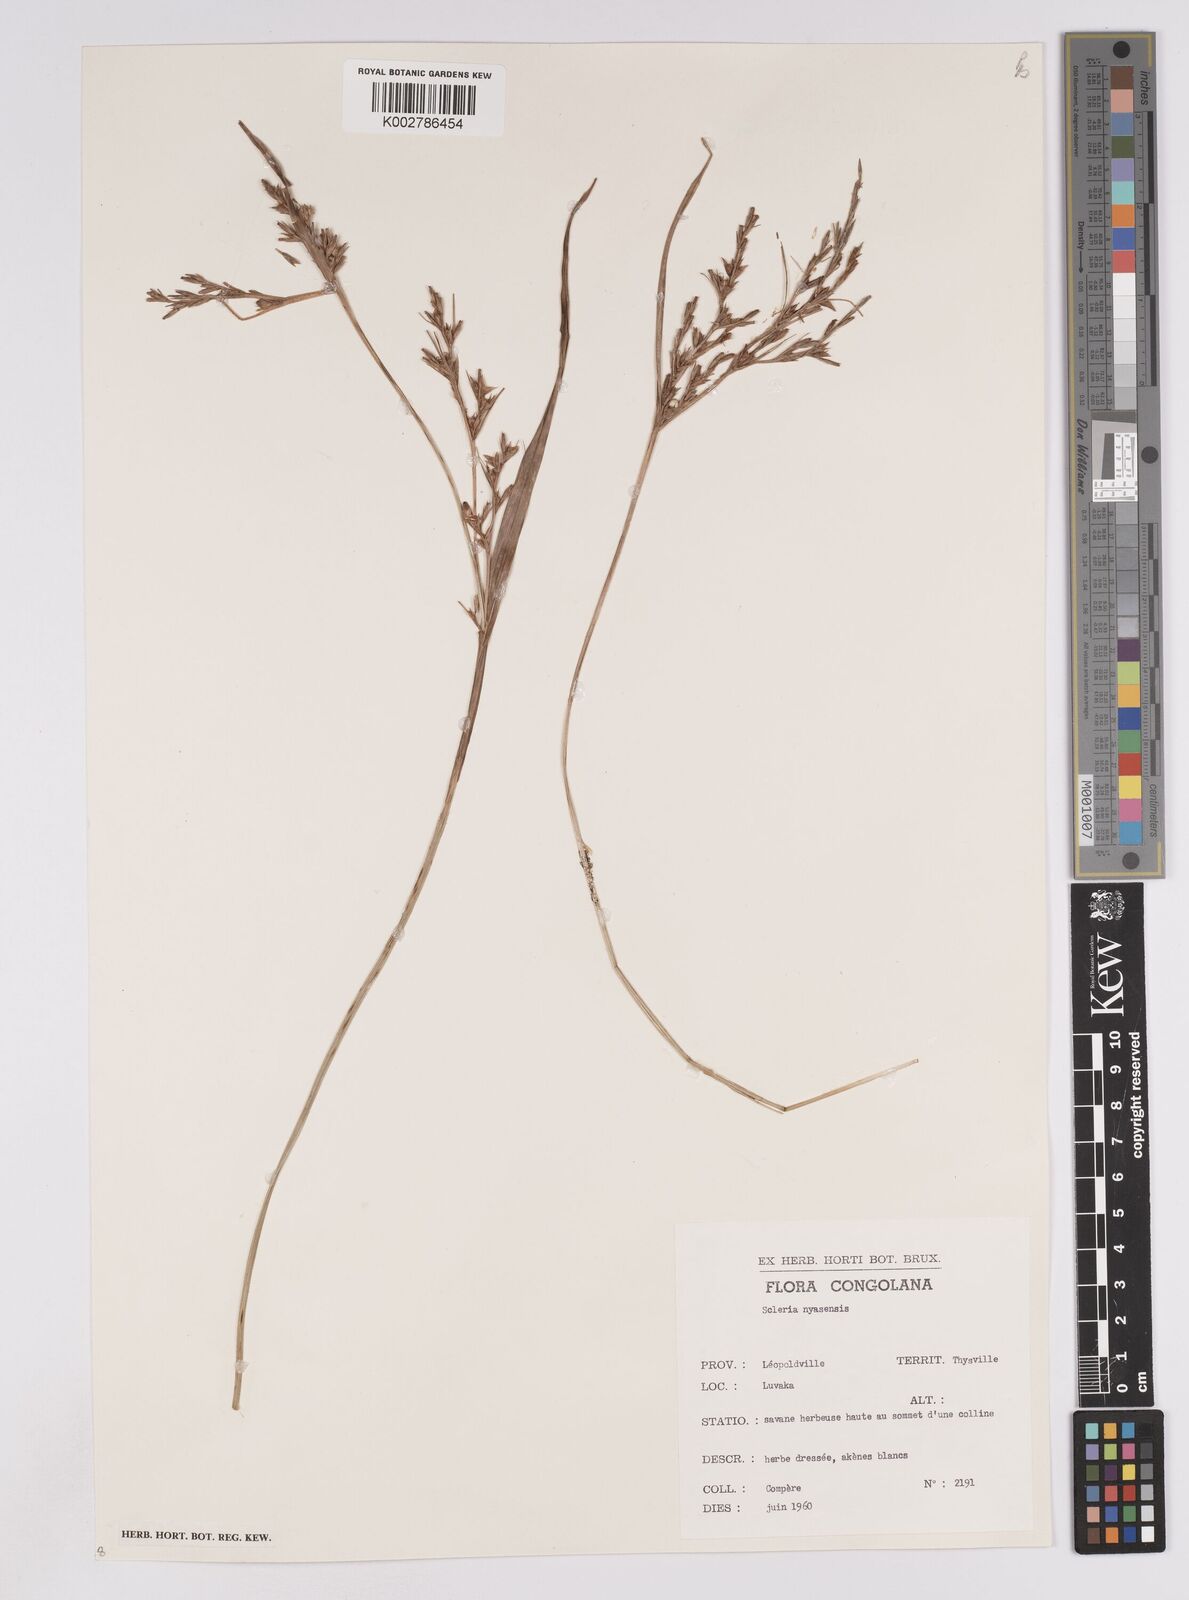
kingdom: Plantae
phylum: Tracheophyta
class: Liliopsida
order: Poales
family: Cyperaceae
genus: Scleria
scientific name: Scleria nyasensis
